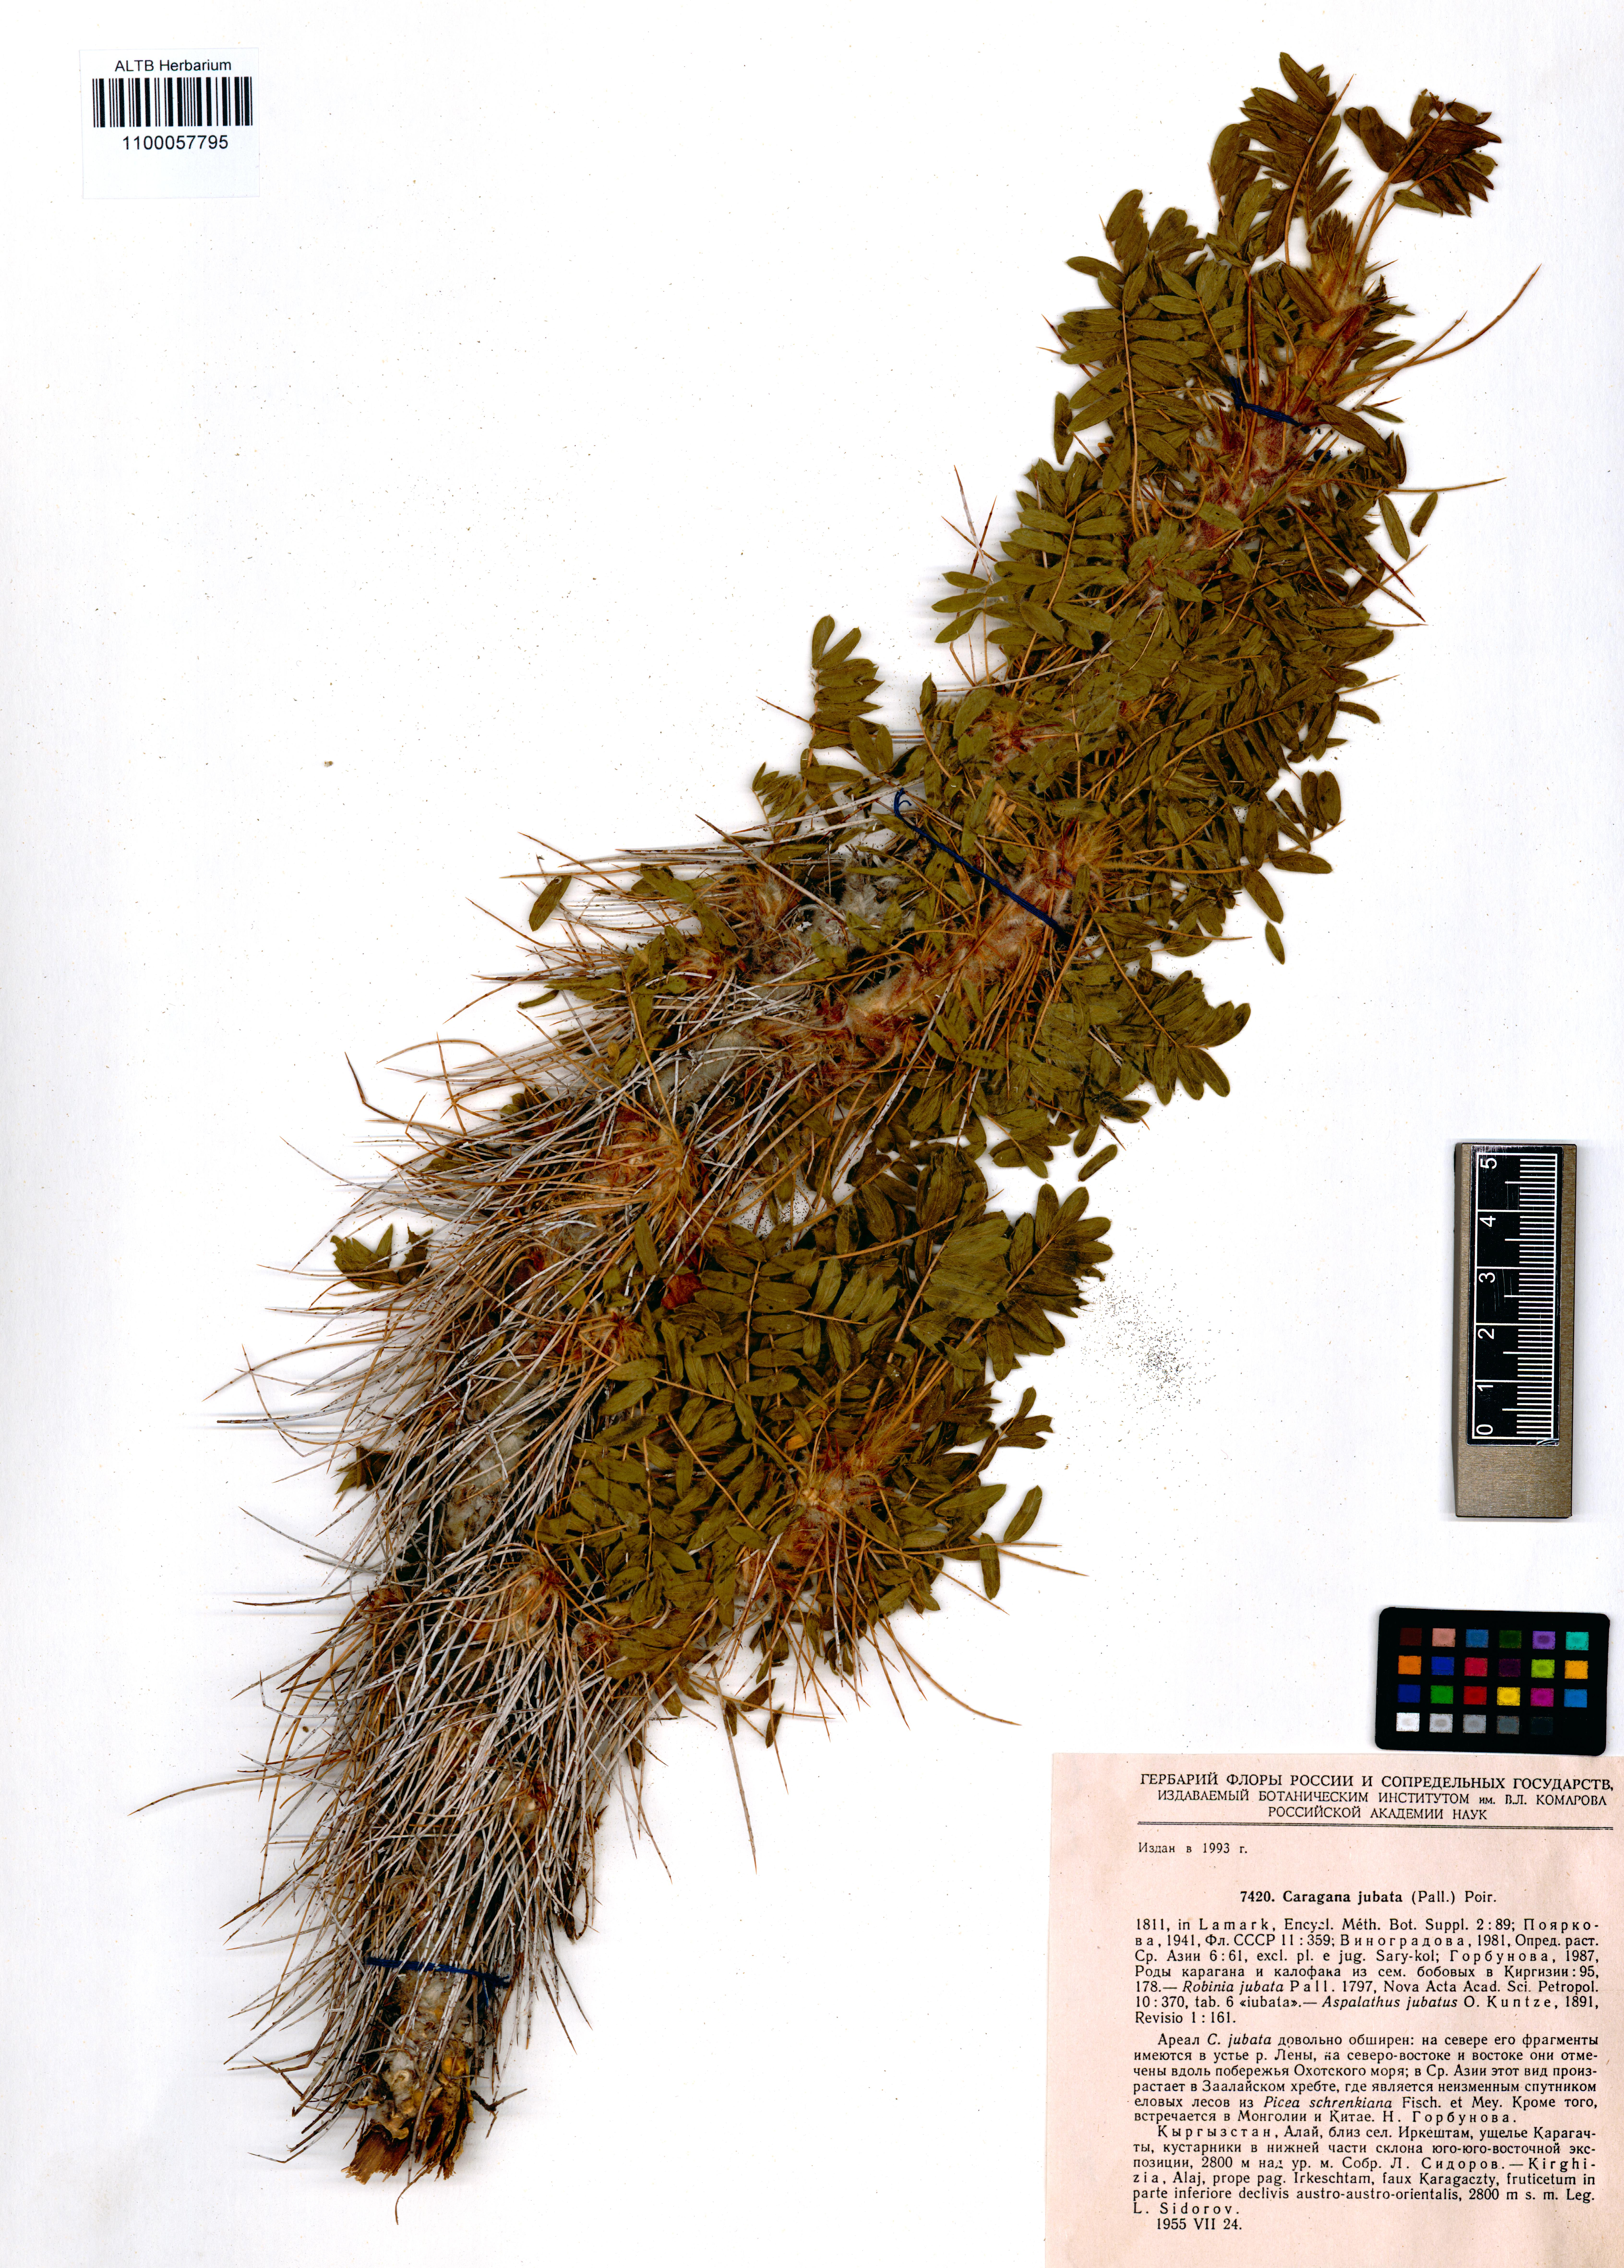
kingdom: Plantae
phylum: Tracheophyta
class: Magnoliopsida
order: Fabales
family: Fabaceae
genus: Caragana
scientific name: Caragana jubata
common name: Shag-spine peashrub
